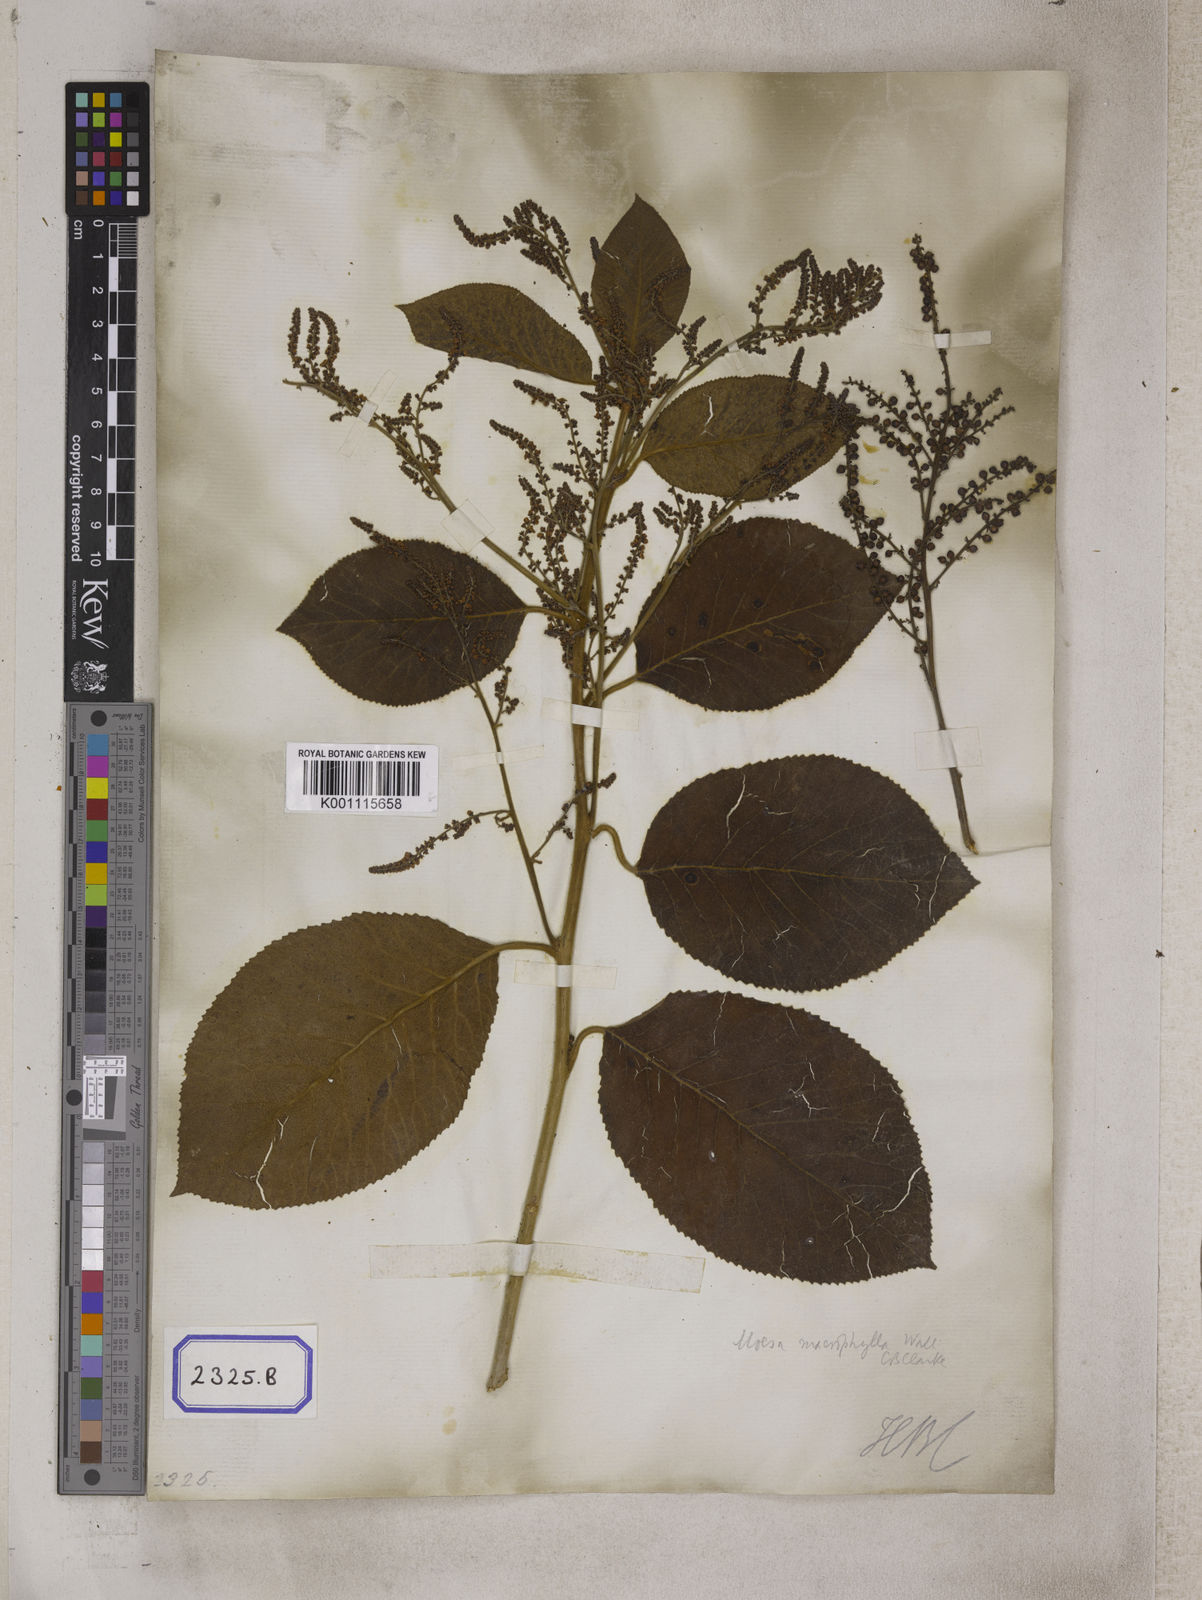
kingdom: Plantae
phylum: Tracheophyta
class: Magnoliopsida
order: Ericales
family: Primulaceae
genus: Maesa
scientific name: Maesa macrophylla
